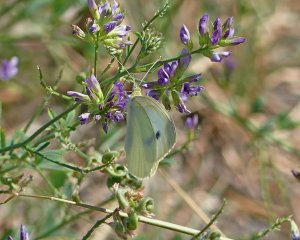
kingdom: Animalia
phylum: Arthropoda
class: Insecta
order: Lepidoptera
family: Pieridae
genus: Pieris
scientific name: Pieris rapae
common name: Cabbage White
